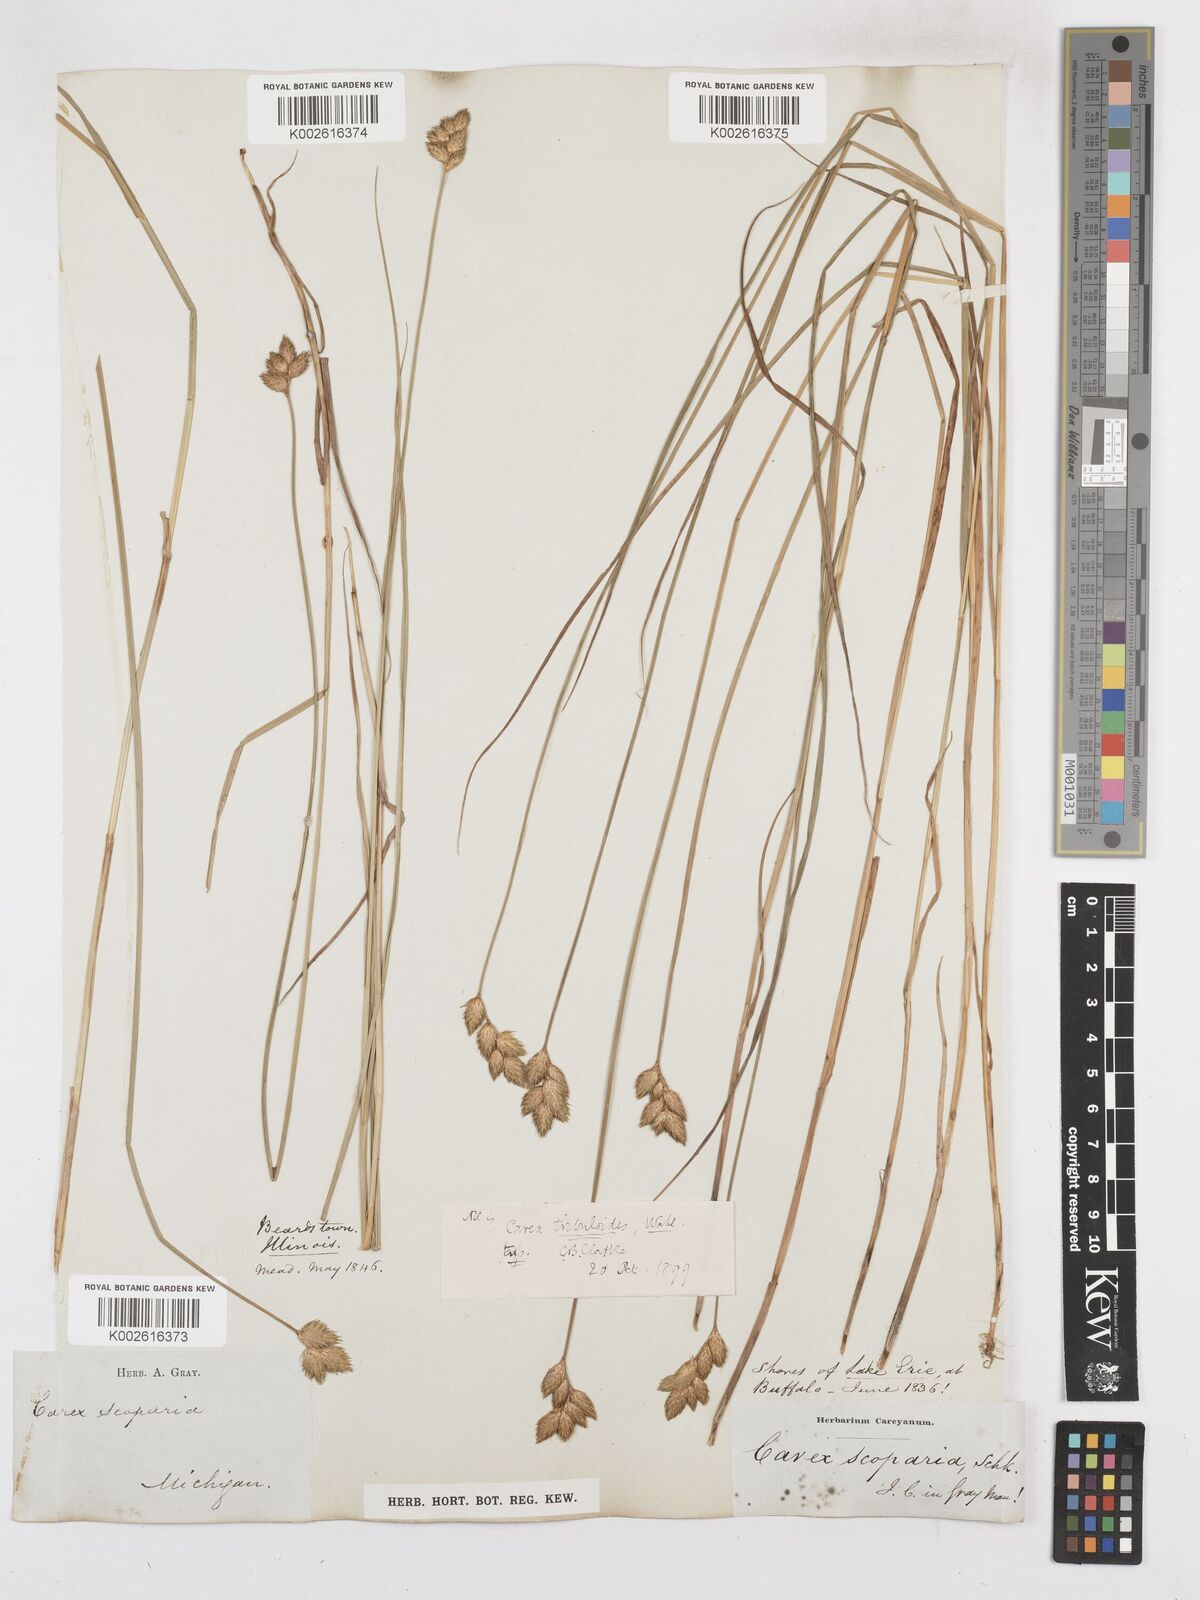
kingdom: Plantae
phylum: Tracheophyta
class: Liliopsida
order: Poales
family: Cyperaceae
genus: Carex
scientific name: Carex tribuloides
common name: Blunt broom sedge
